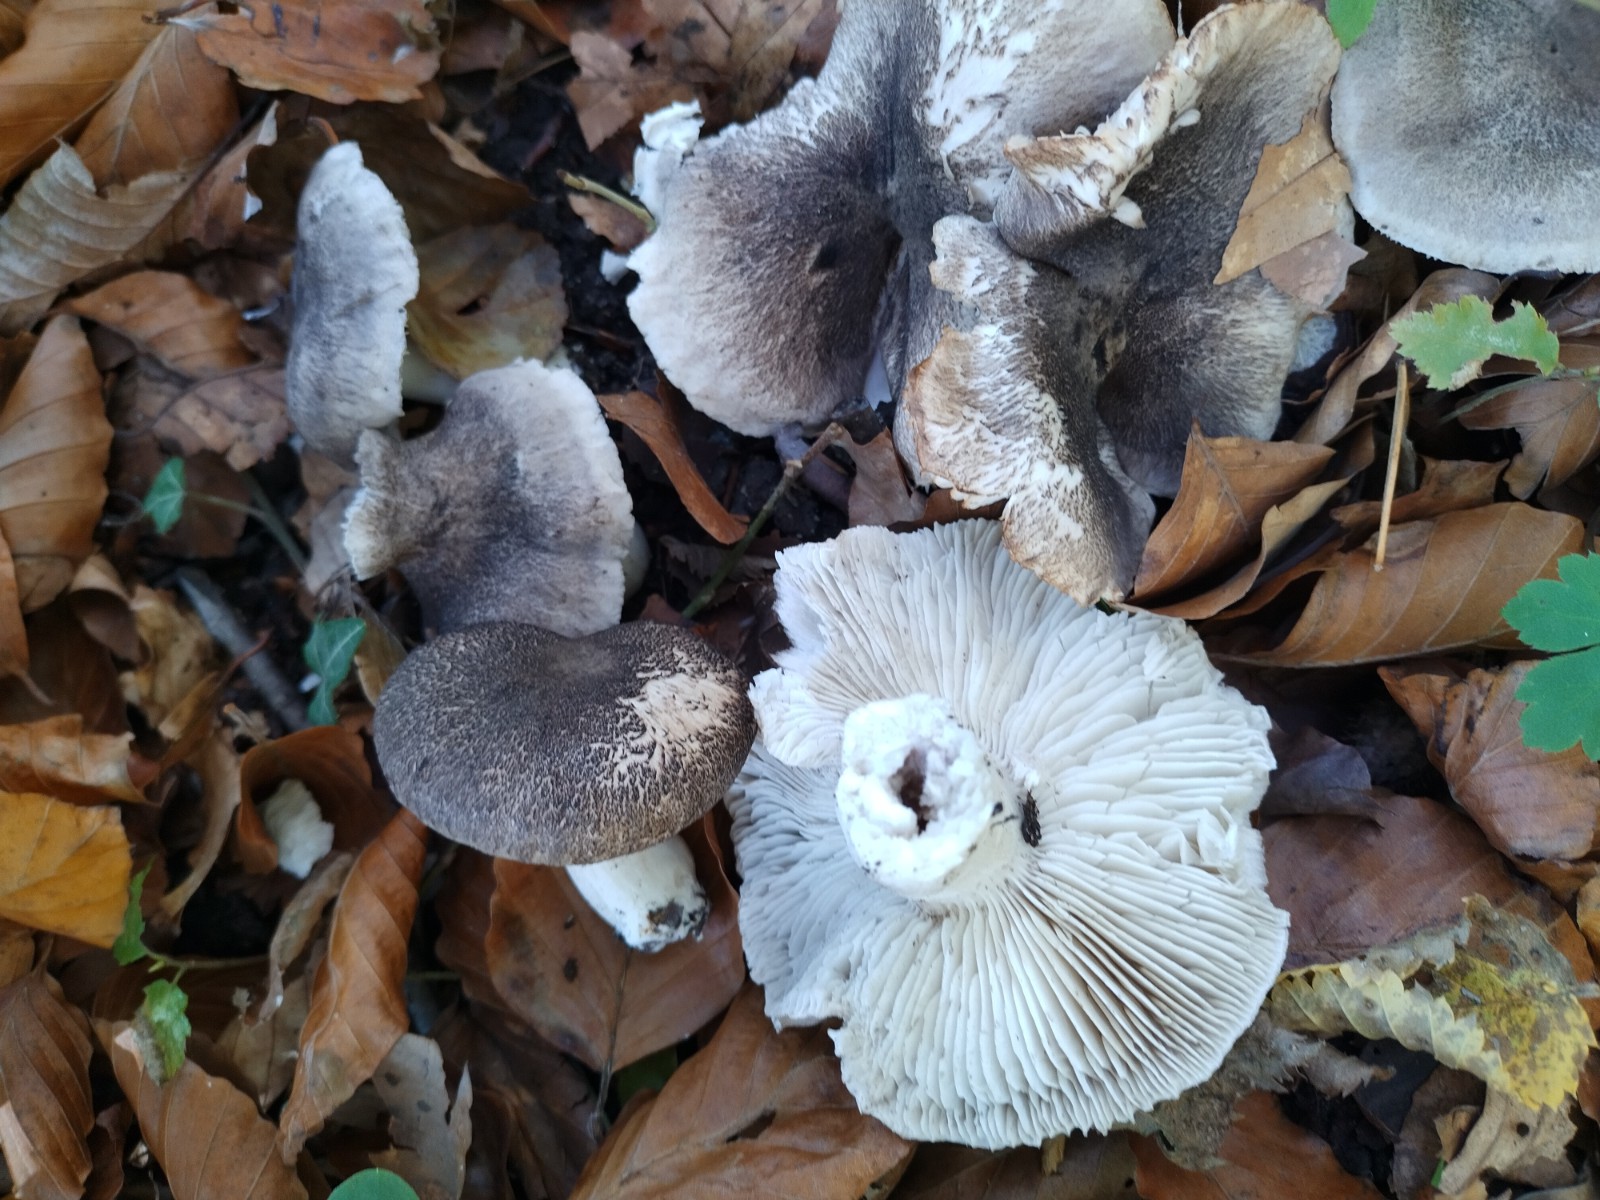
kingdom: Fungi
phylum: Basidiomycota
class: Agaricomycetes
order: Agaricales
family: Tricholomataceae
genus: Tricholoma
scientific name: Tricholoma orirubens
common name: rødbladet ridderhat
